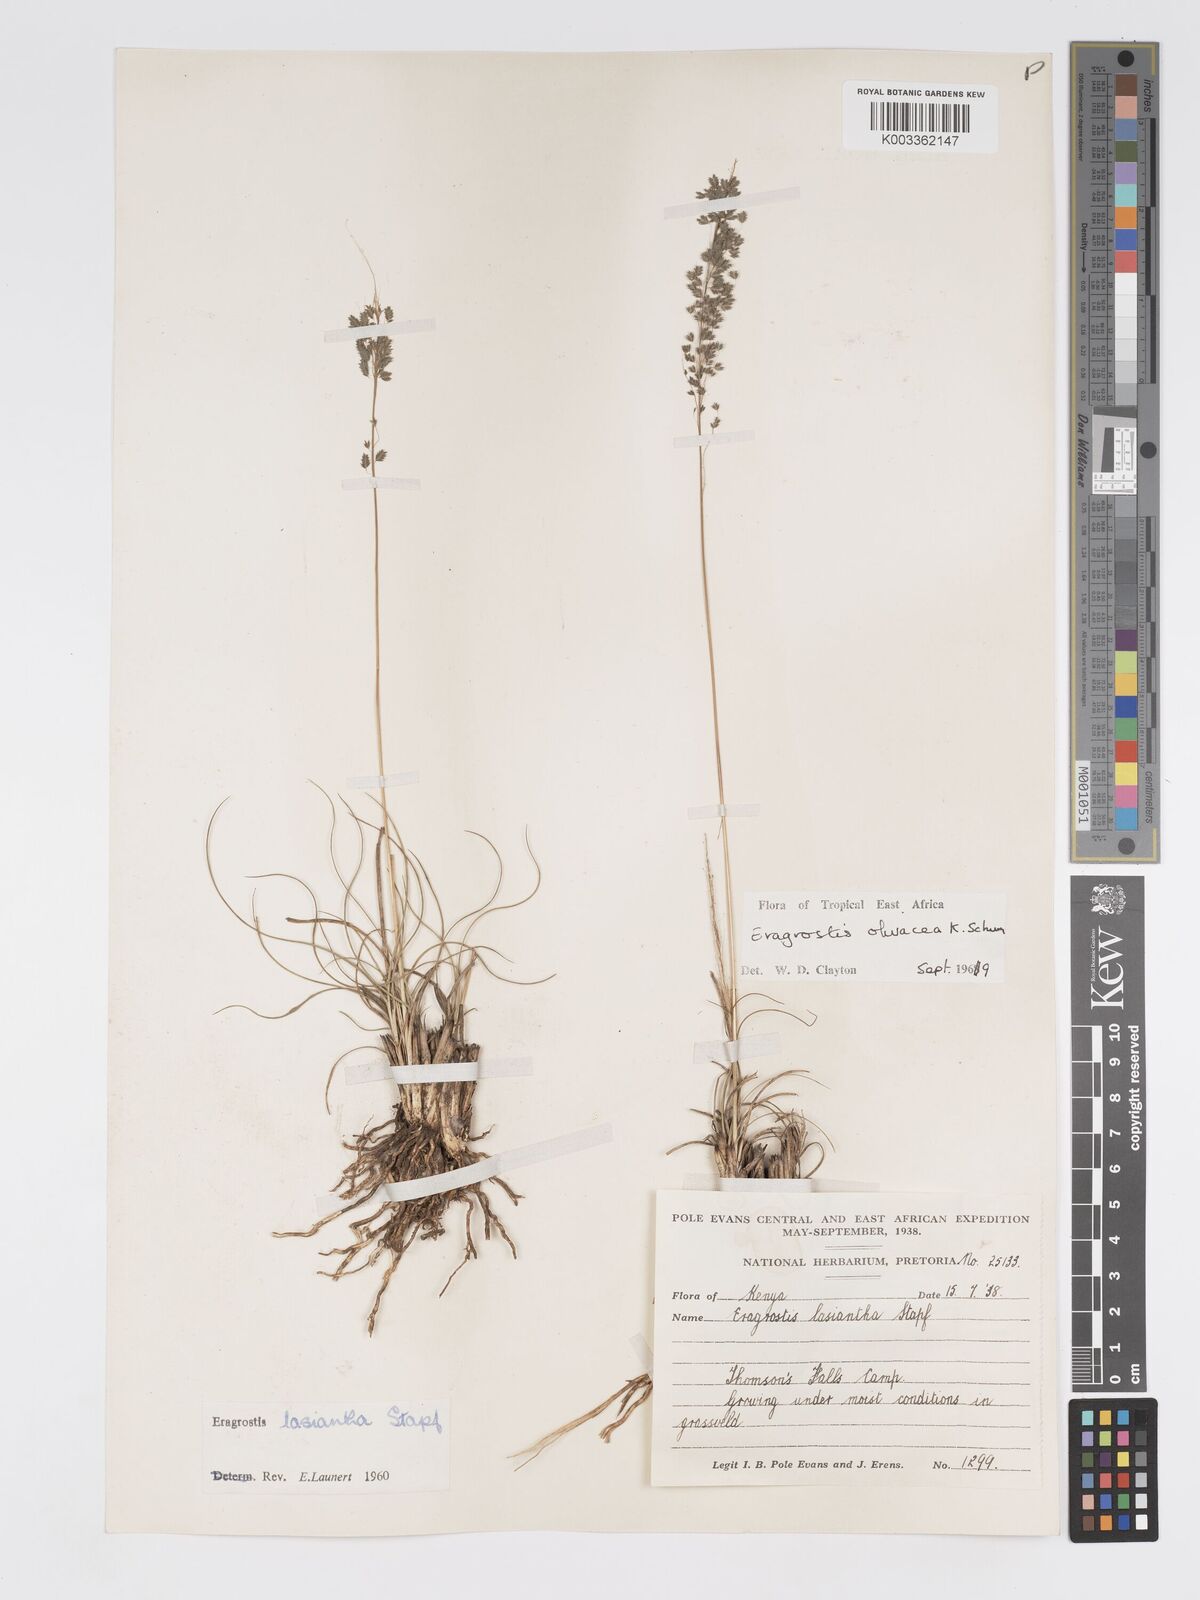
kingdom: Plantae
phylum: Tracheophyta
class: Liliopsida
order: Poales
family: Poaceae
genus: Eragrostis
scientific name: Eragrostis olivacea
